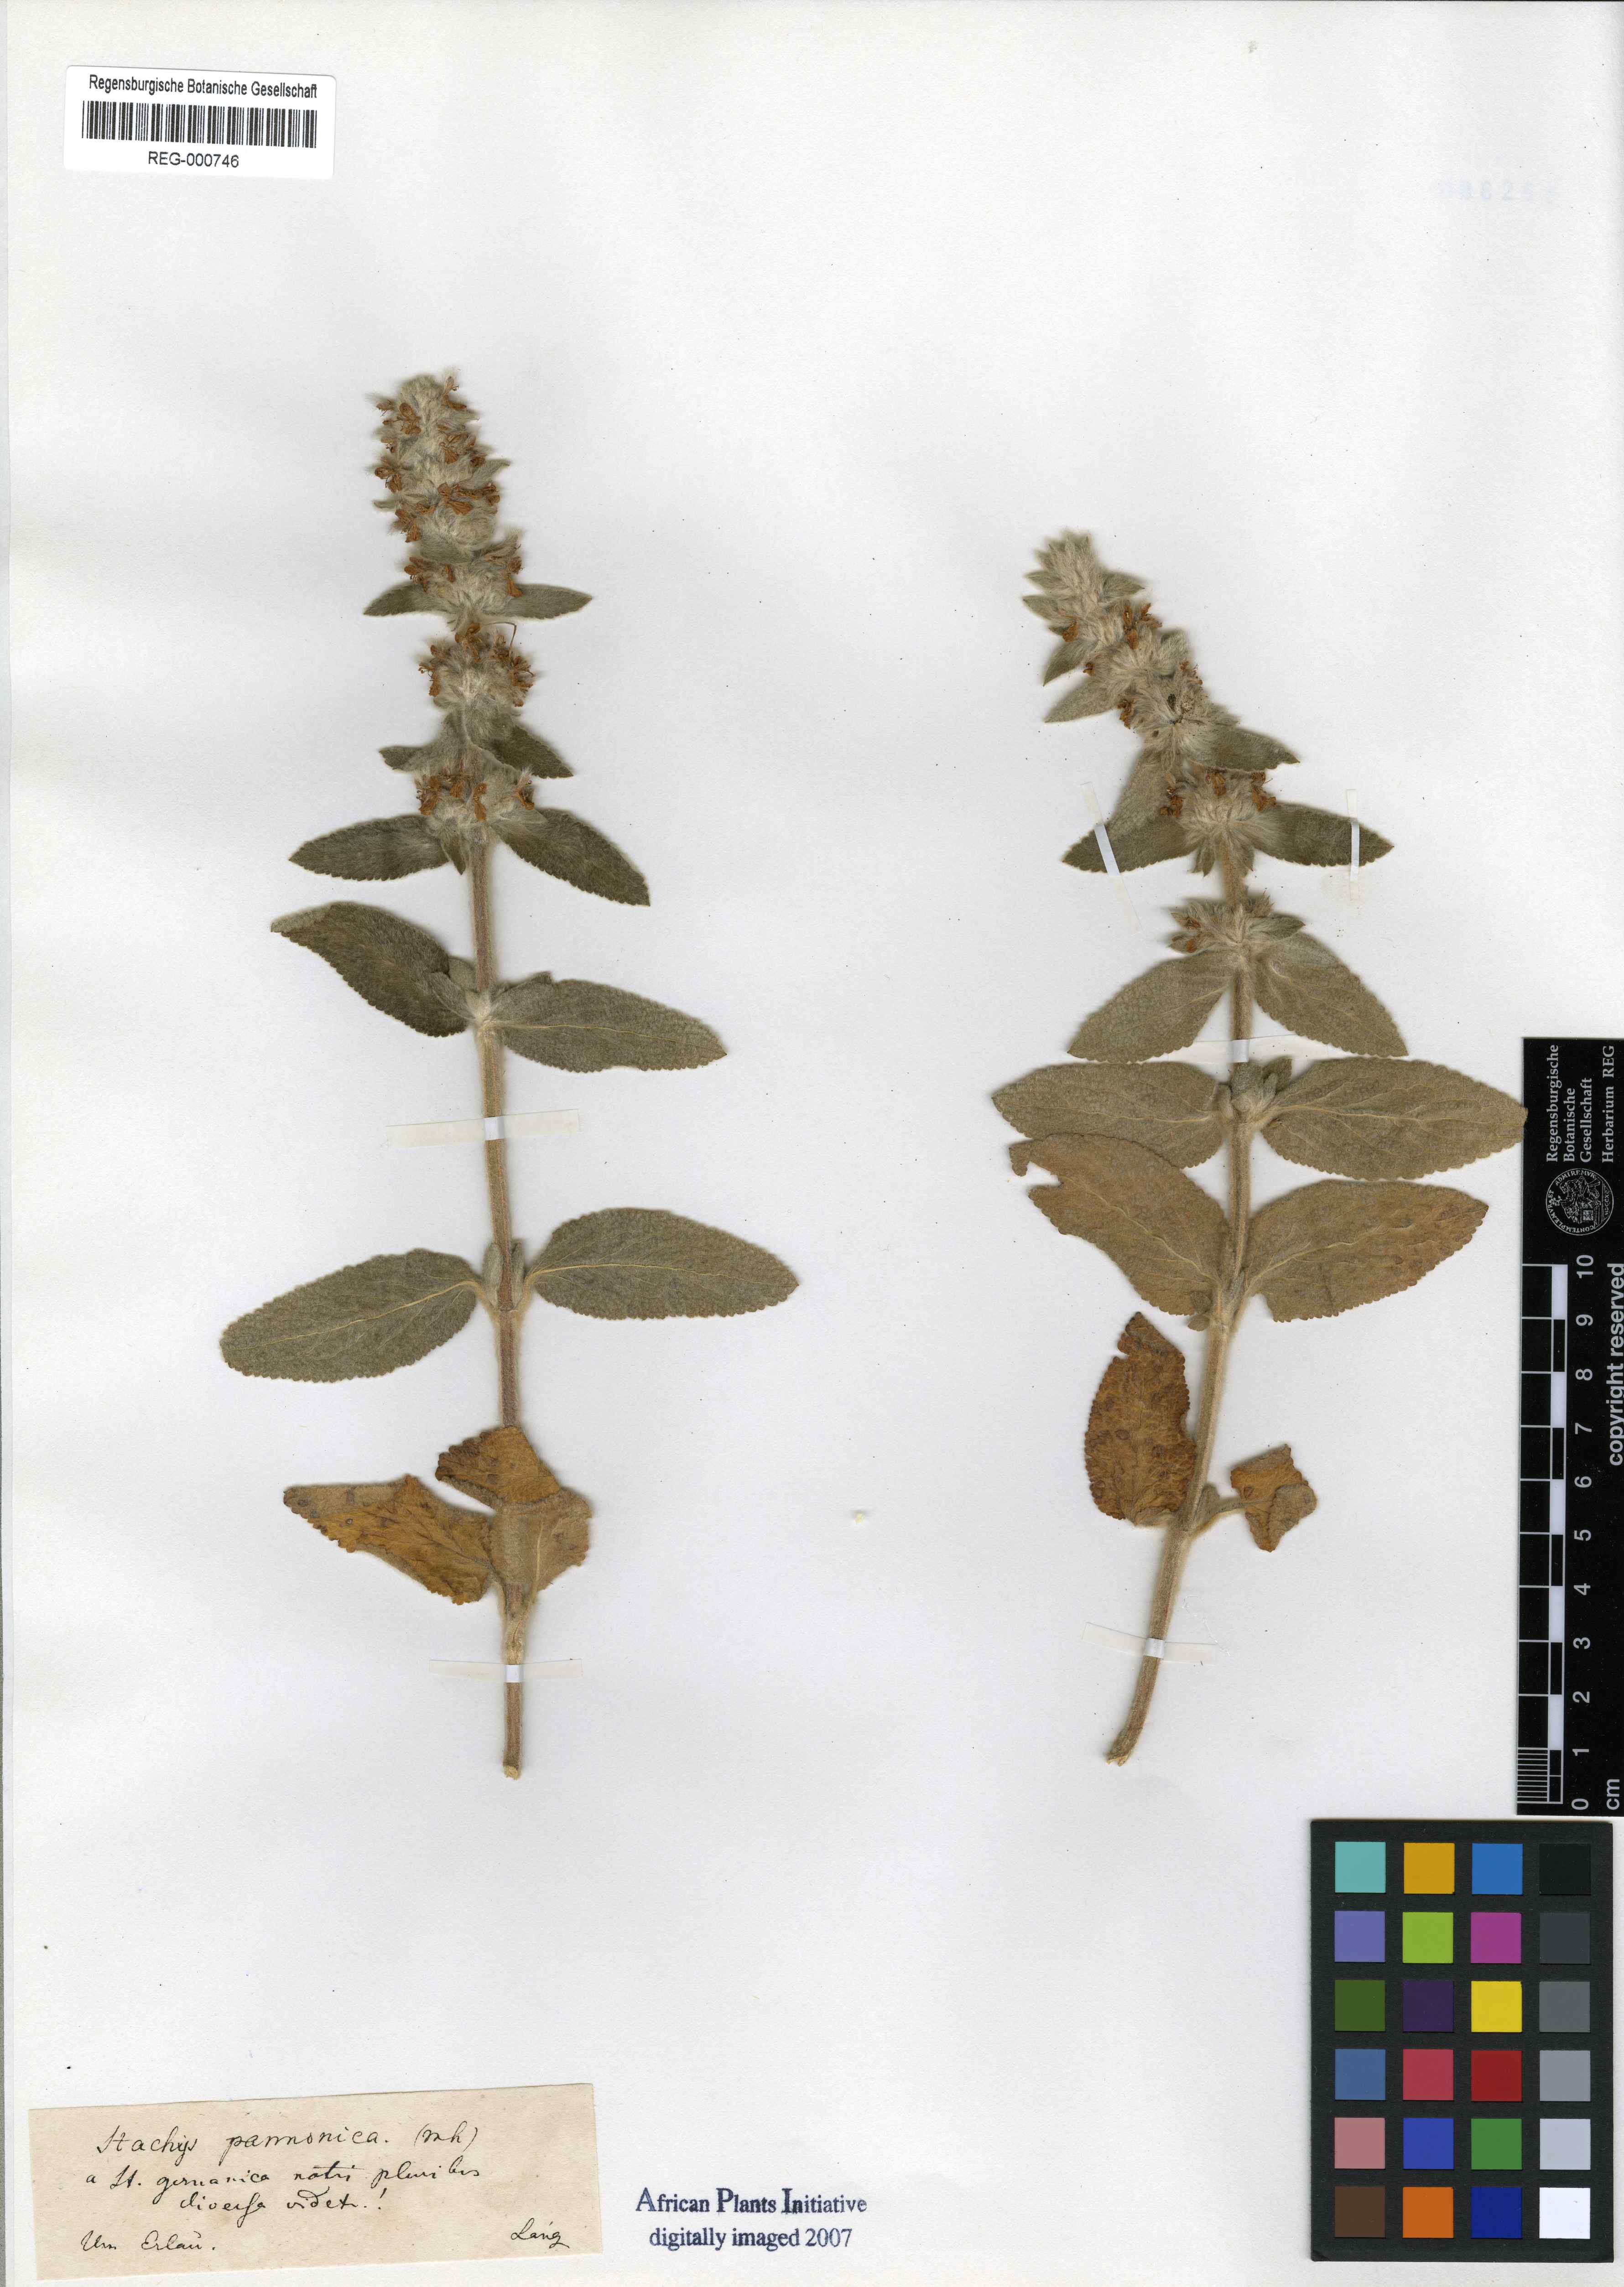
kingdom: Plantae
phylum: Tracheophyta
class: Magnoliopsida
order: Lamiales
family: Lamiaceae
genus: Stachys
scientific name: Stachys germanica
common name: Downy woundwort
